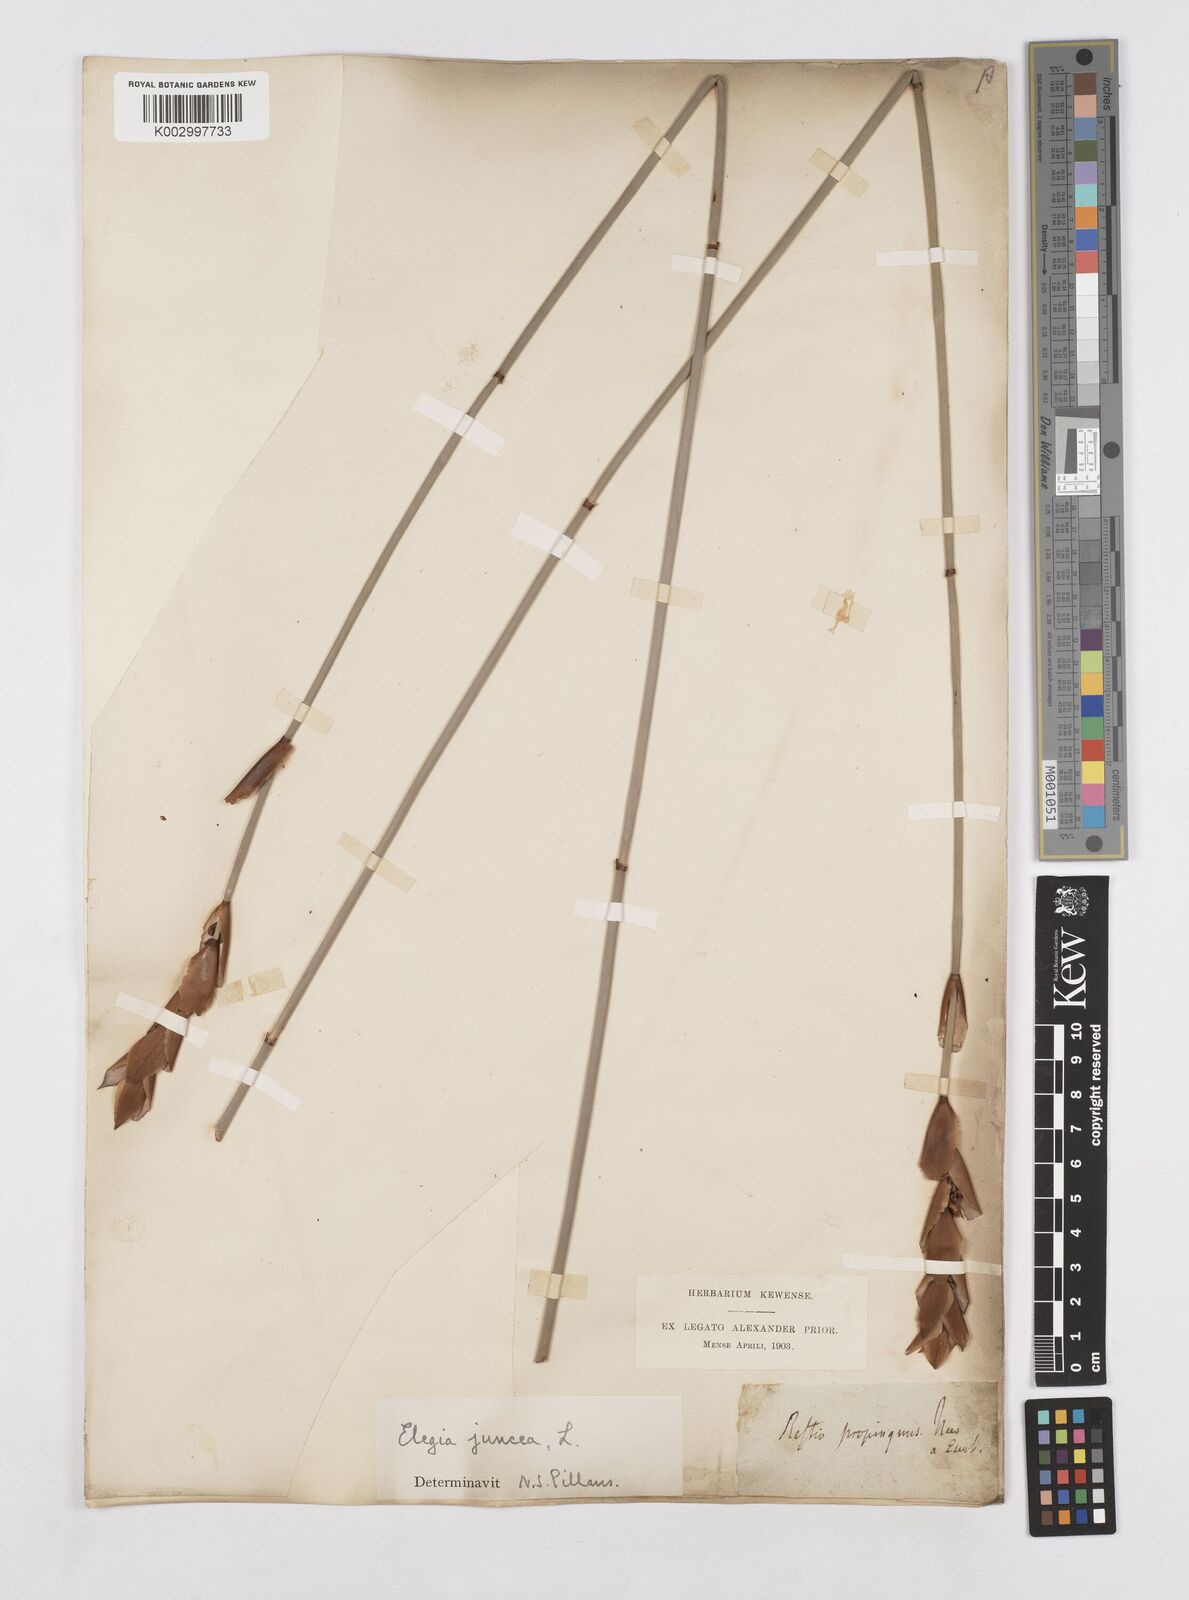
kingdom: Plantae
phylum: Tracheophyta
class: Liliopsida
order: Poales
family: Restionaceae
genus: Elegia
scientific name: Elegia juncea
